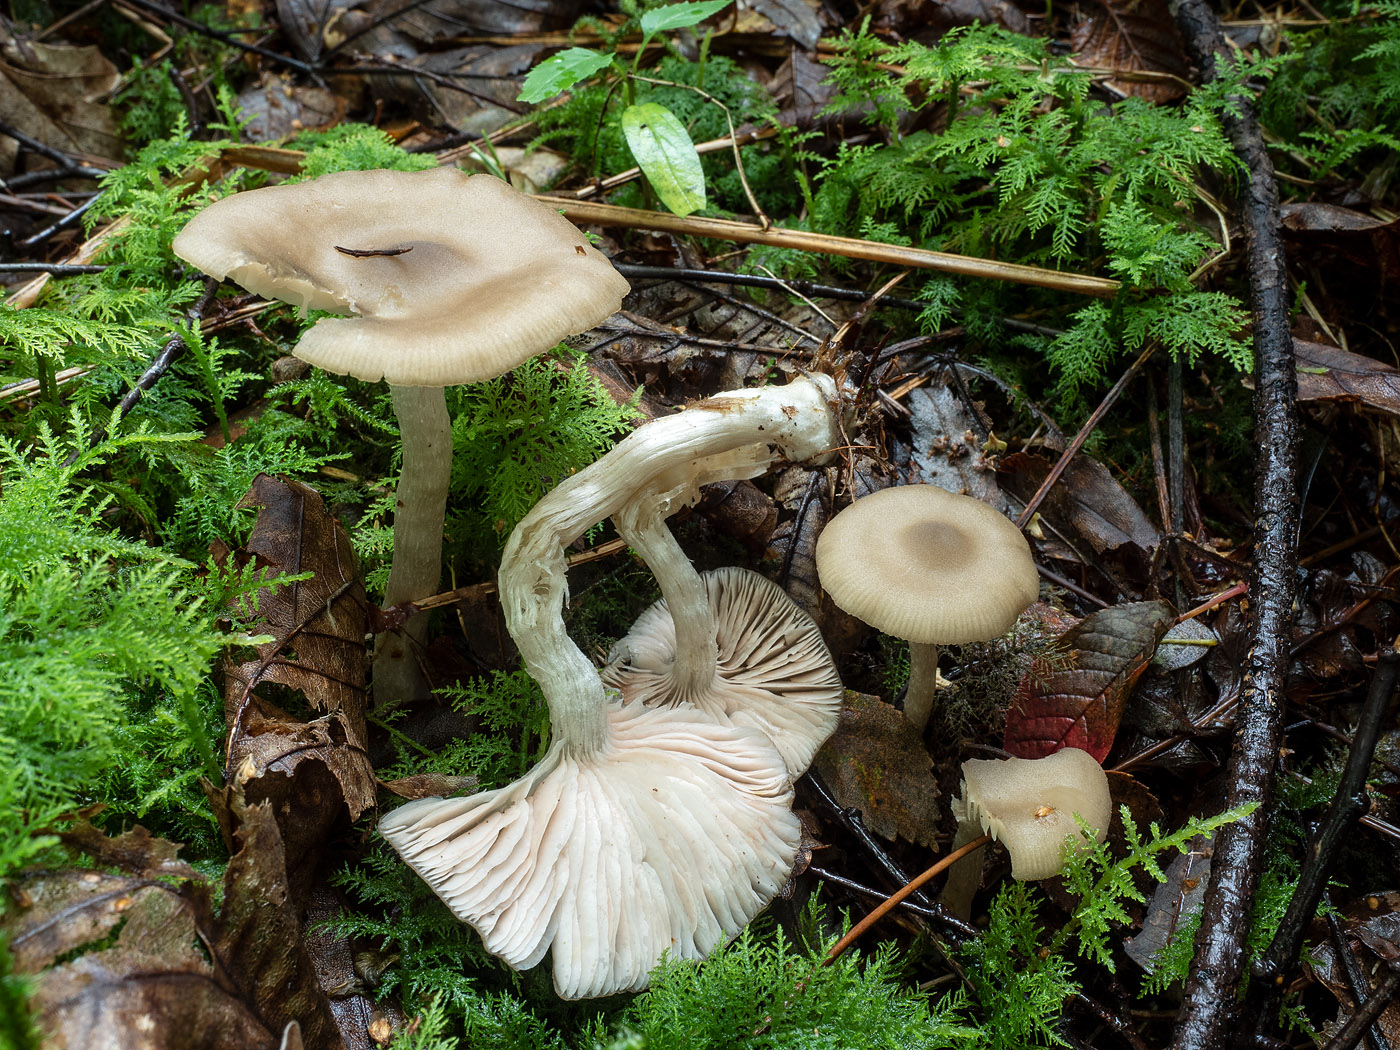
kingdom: Fungi
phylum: Basidiomycota
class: Agaricomycetes
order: Agaricales
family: Entolomataceae
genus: Entoloma
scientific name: Entoloma sericatum
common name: rank rødblad
